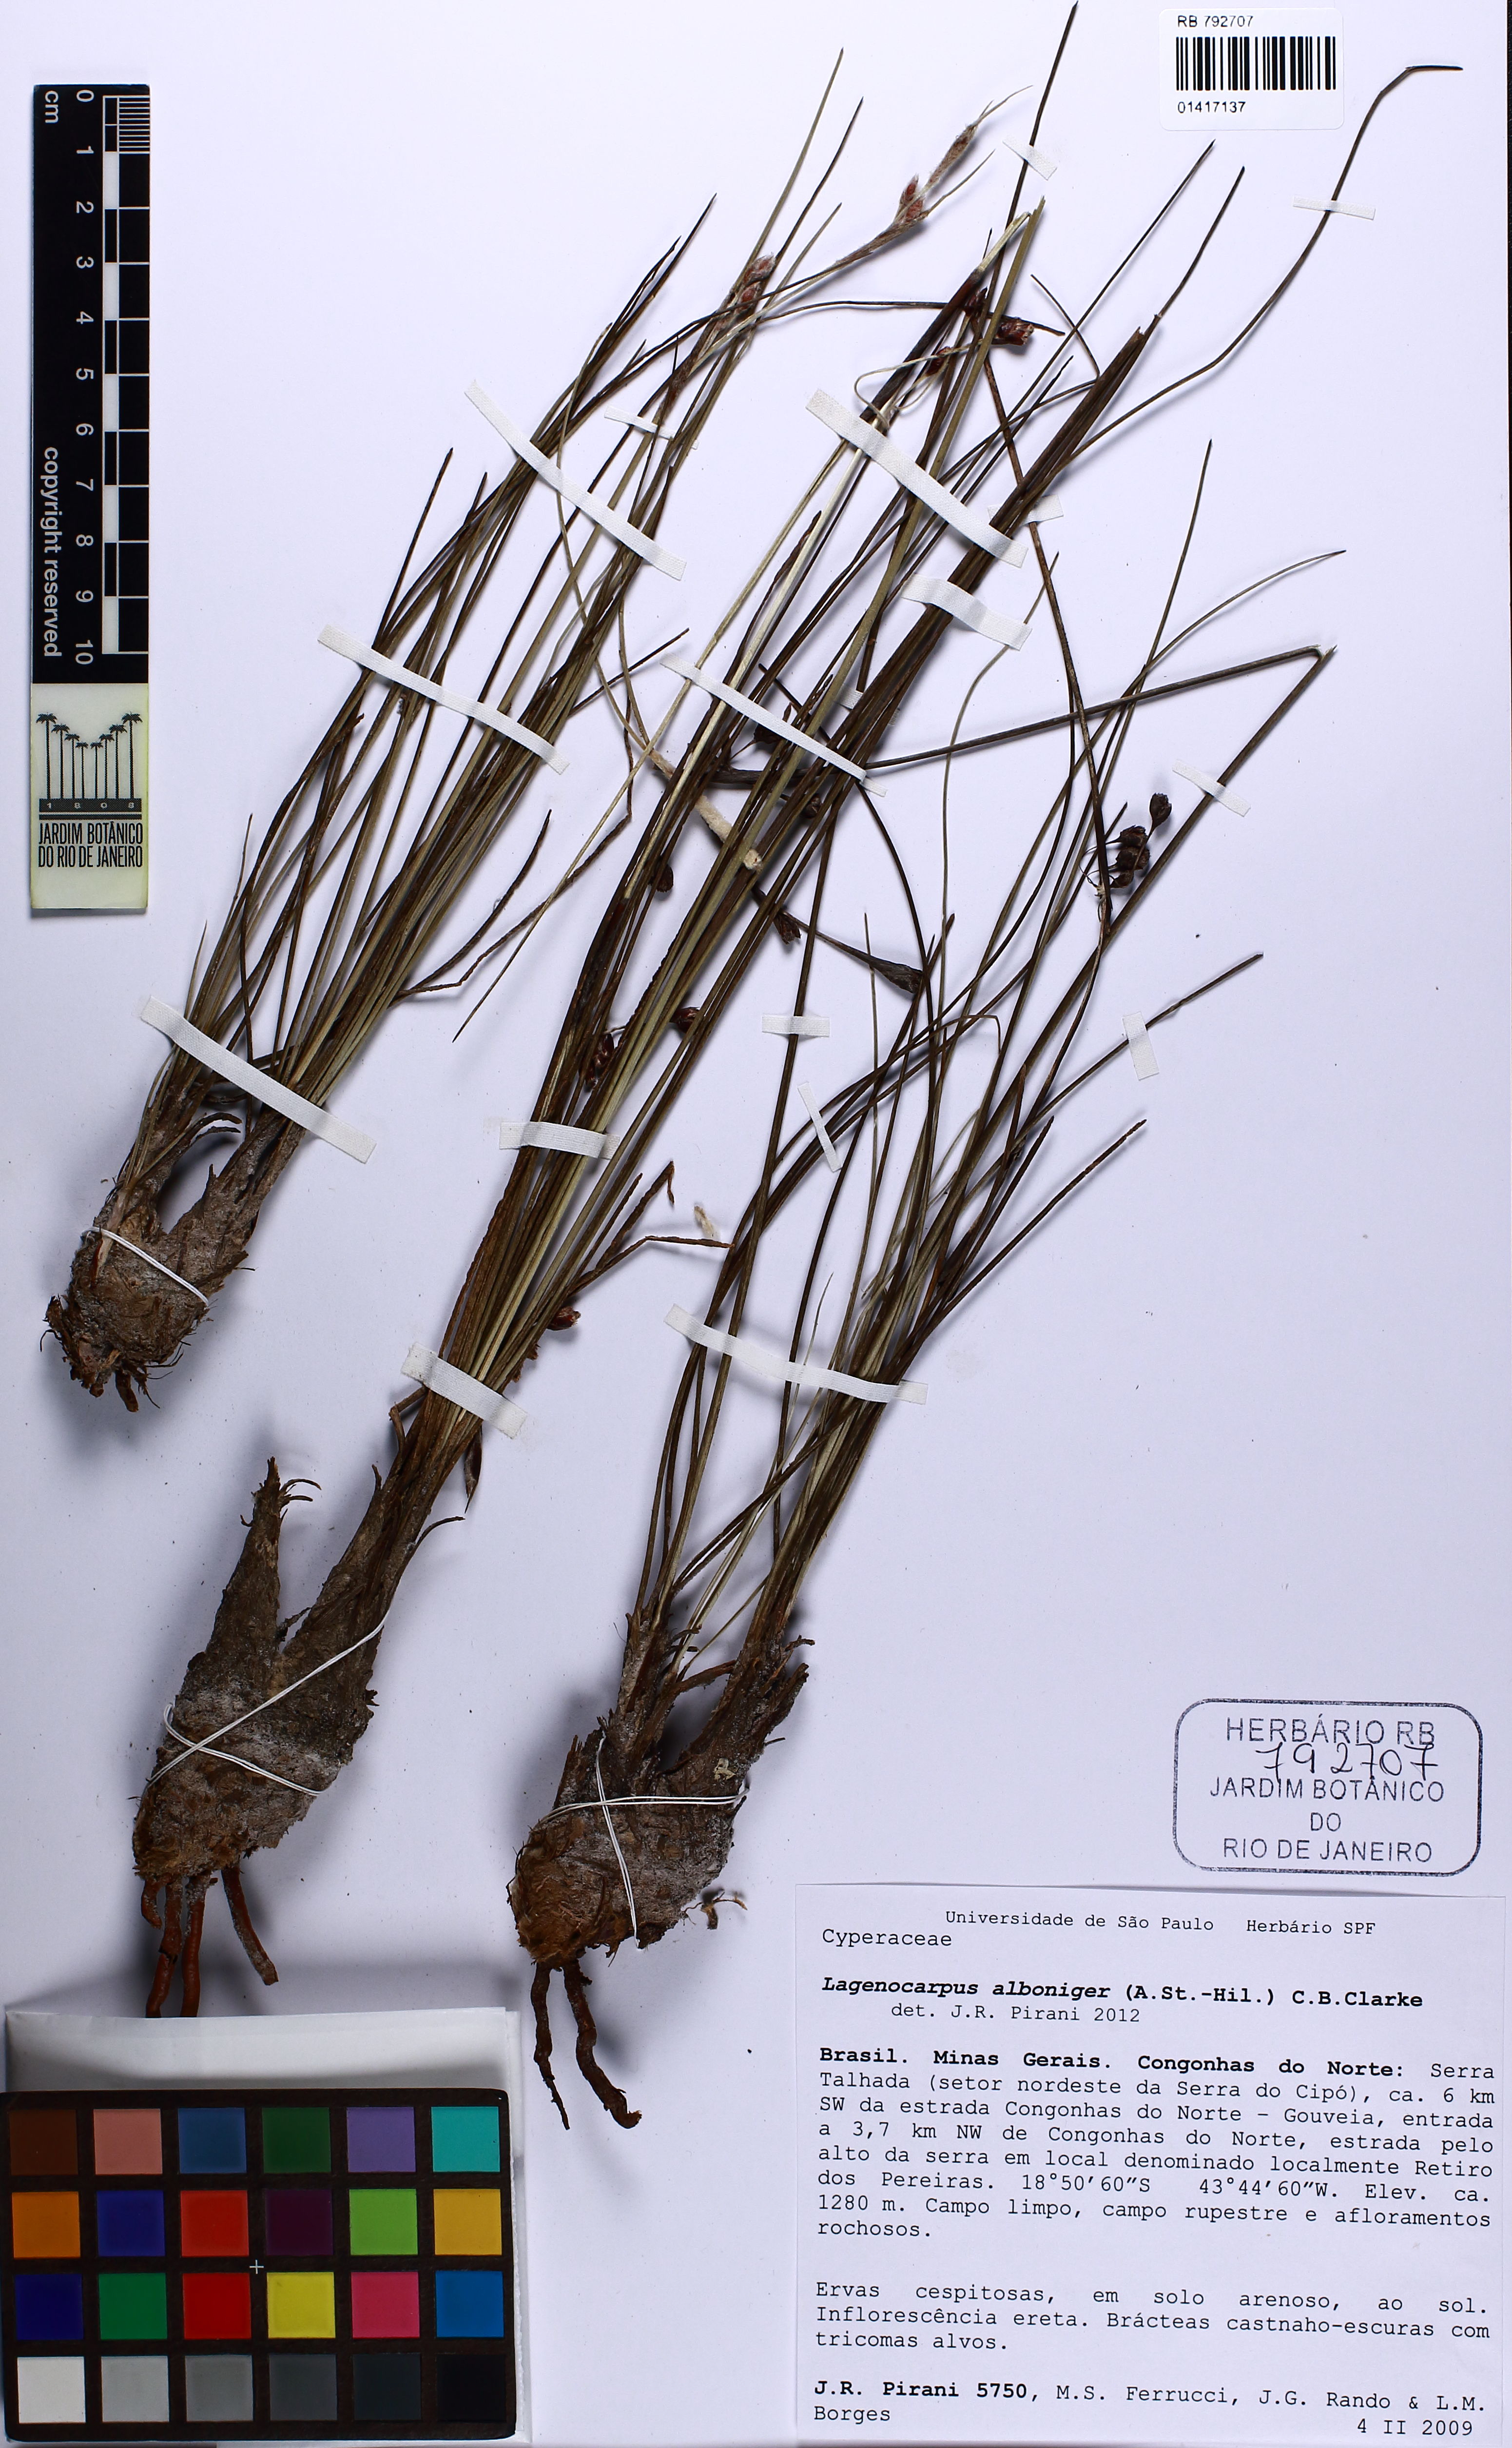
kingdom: Plantae
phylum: Tracheophyta
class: Liliopsida
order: Poales
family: Cyperaceae
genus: Lagenocarpus
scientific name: Lagenocarpus alboniger
